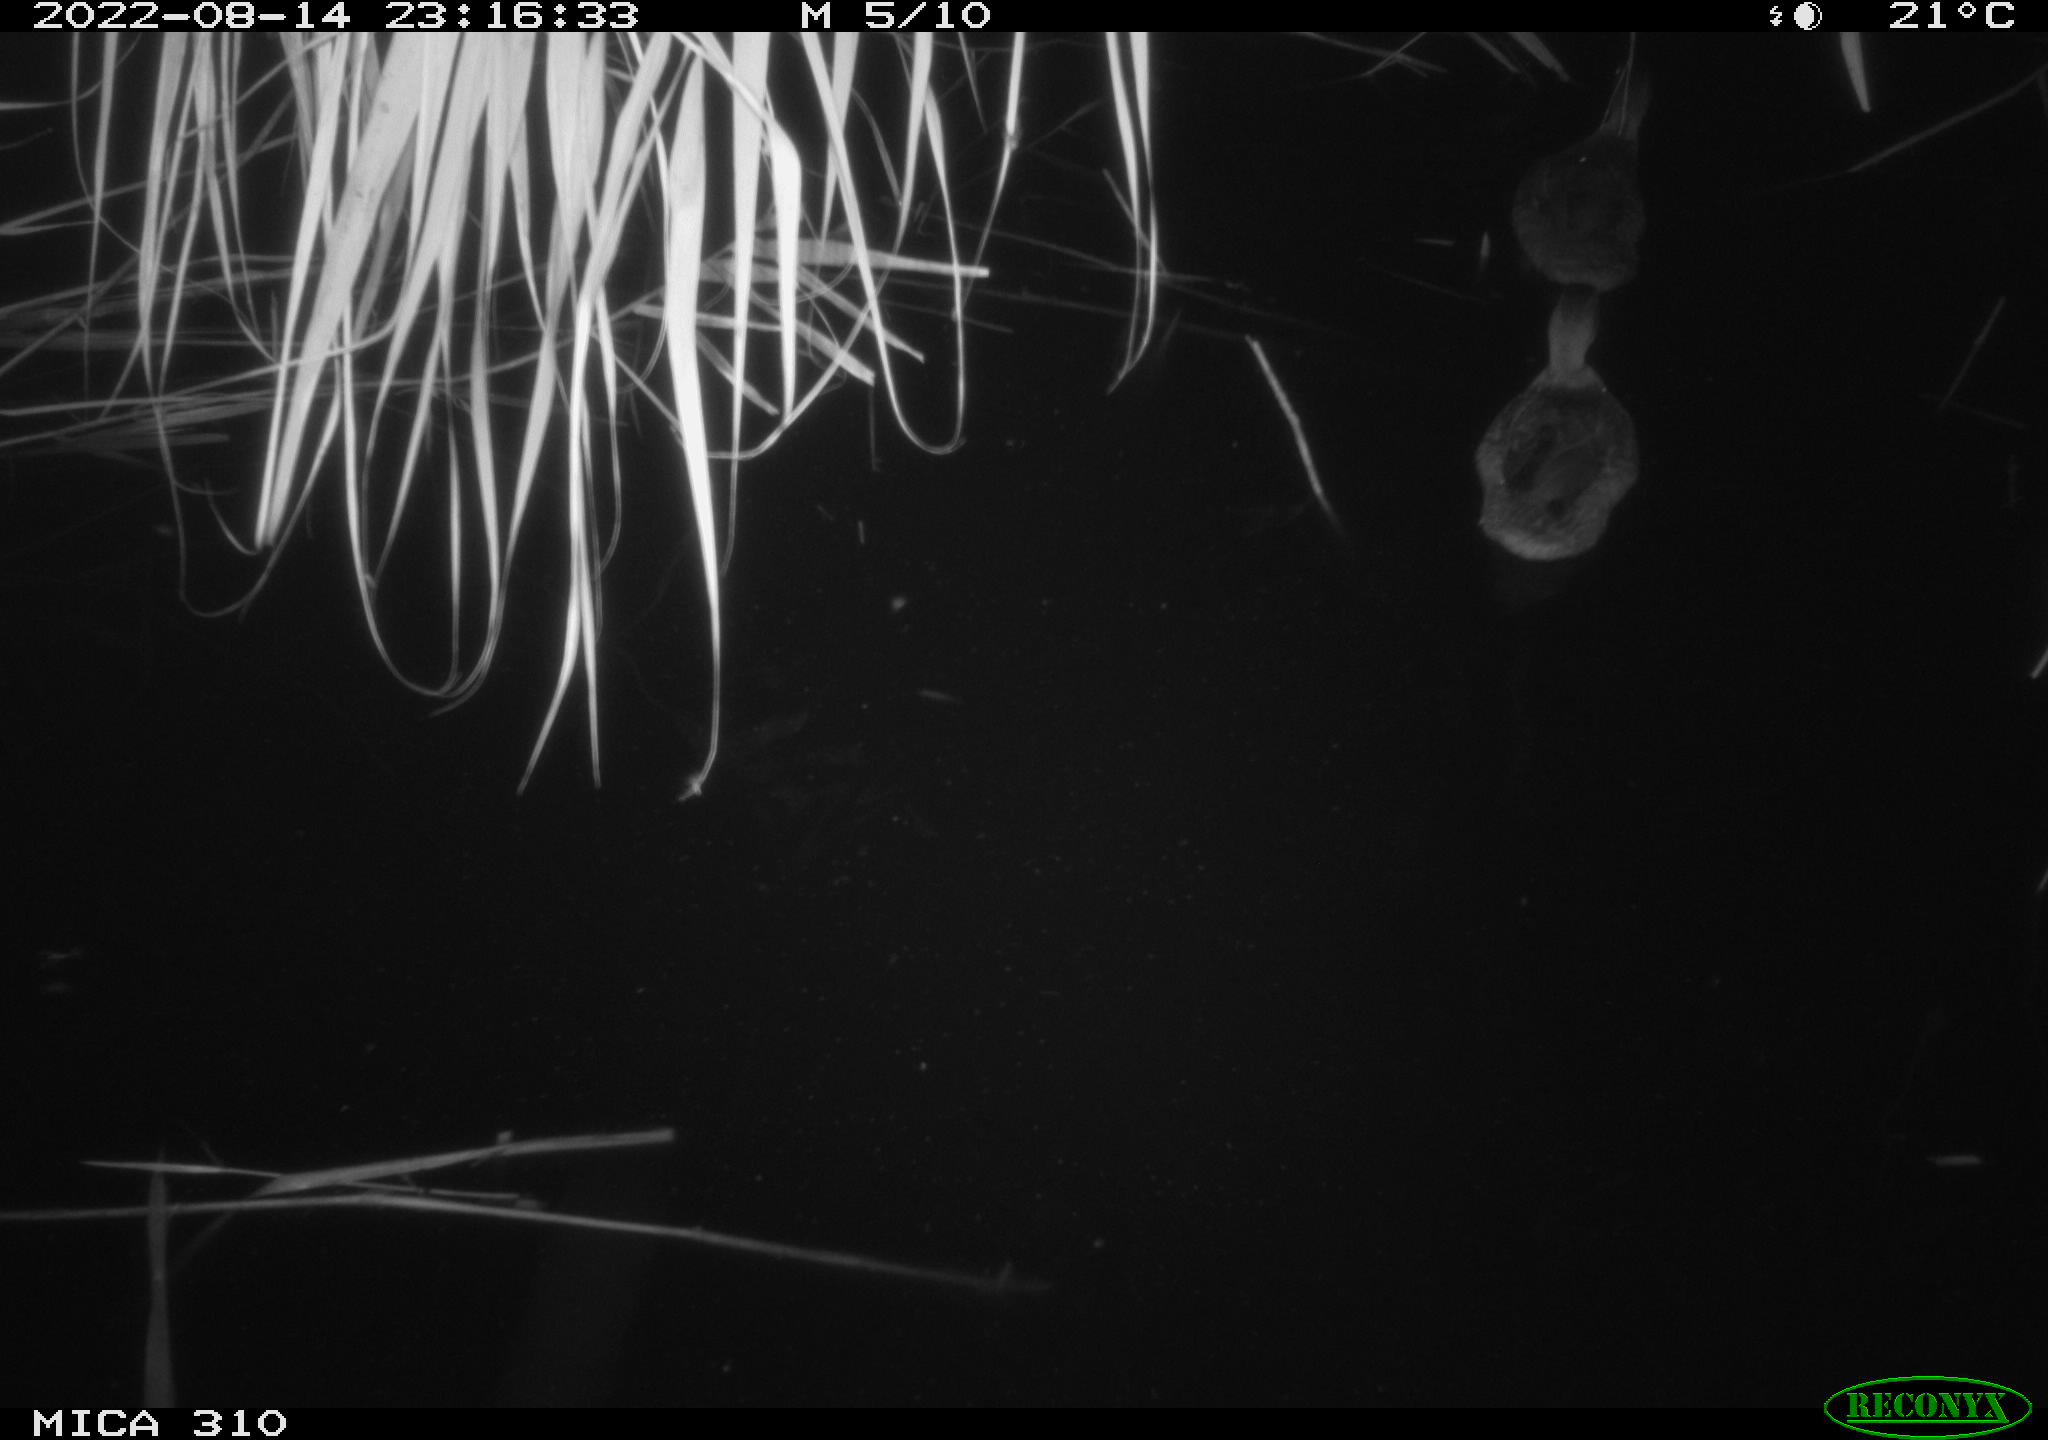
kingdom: Animalia
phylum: Chordata
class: Aves
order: Gruiformes
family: Rallidae
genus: Fulica
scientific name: Fulica atra
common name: Eurasian coot
